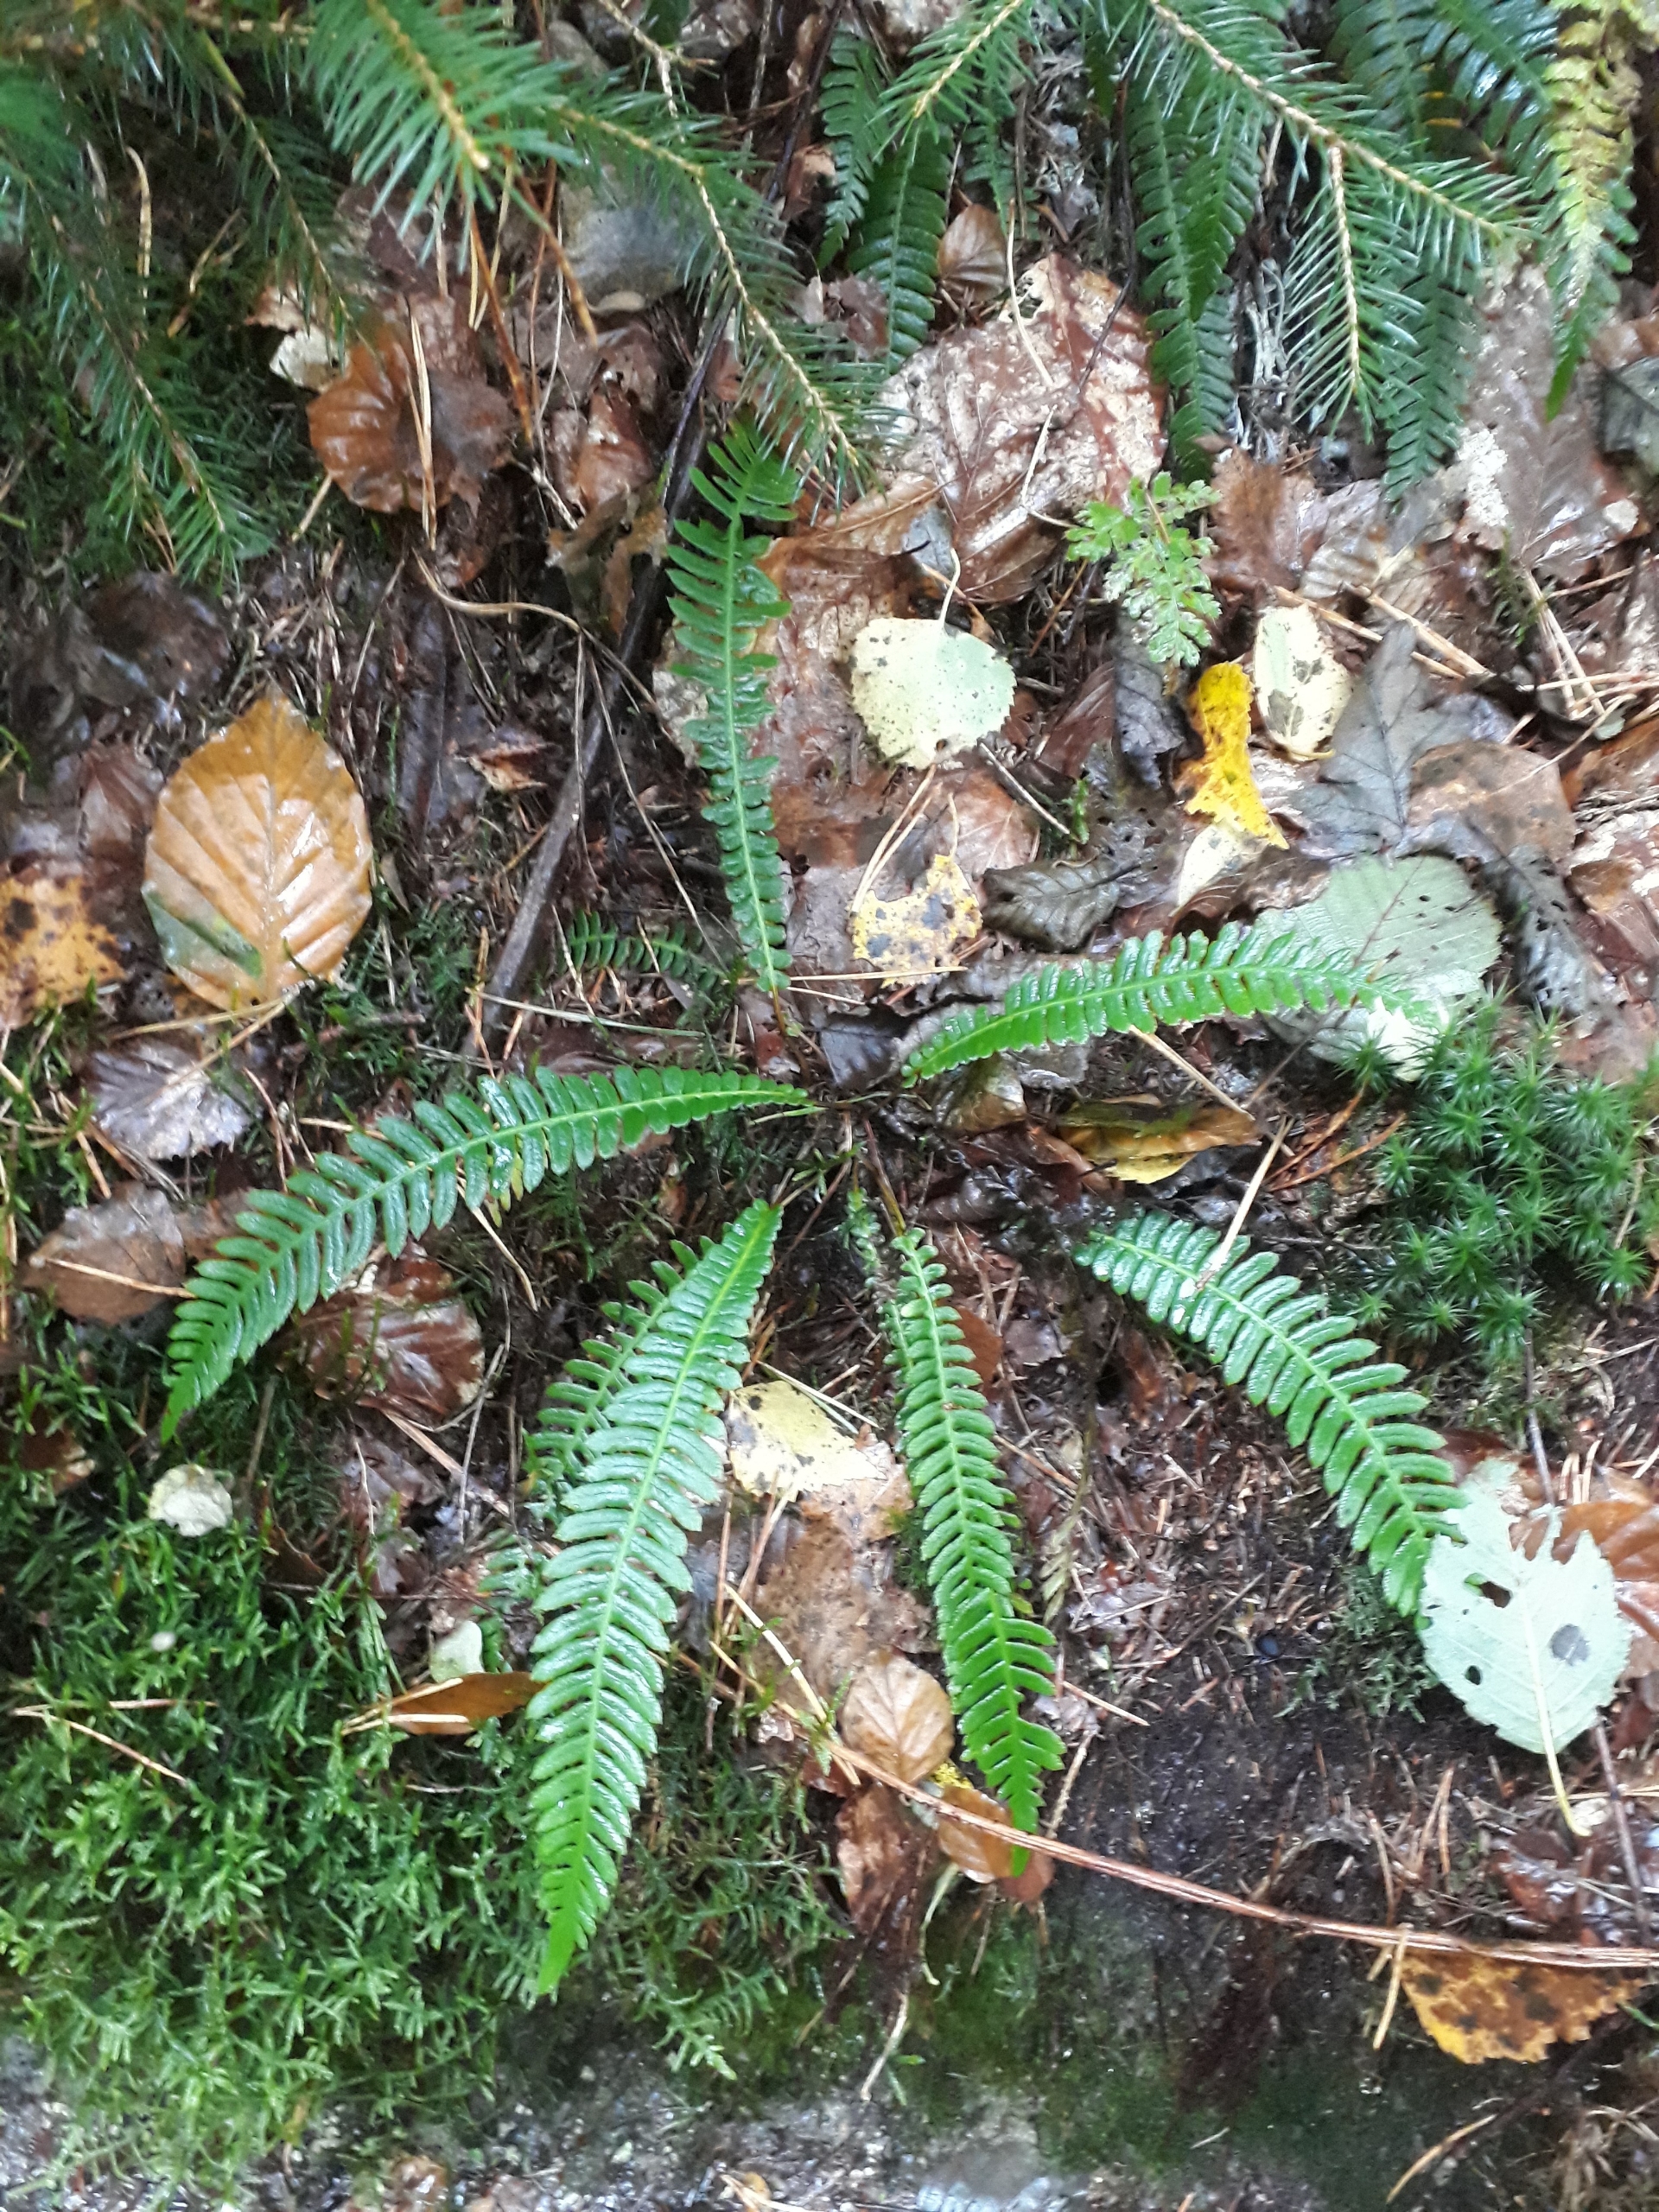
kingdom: Plantae
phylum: Tracheophyta
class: Polypodiopsida
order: Polypodiales
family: Blechnaceae
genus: Struthiopteris
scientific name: Struthiopteris spicant
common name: Kambregne
